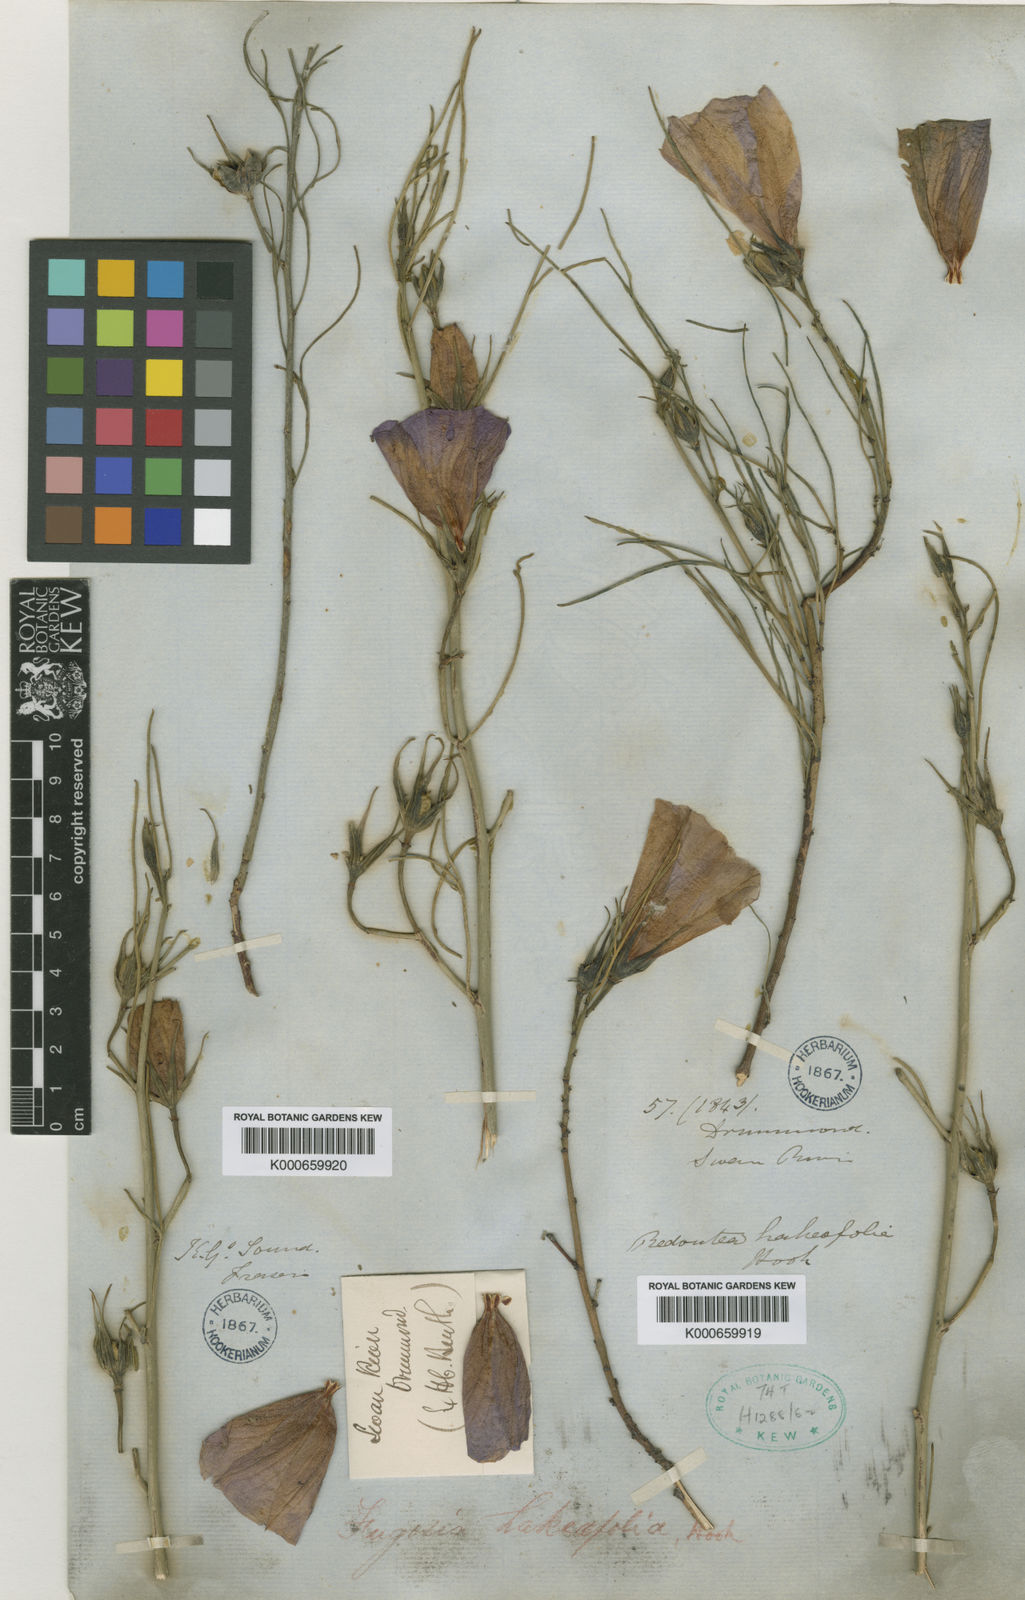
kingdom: Plantae
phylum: Tracheophyta
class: Magnoliopsida
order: Malvales
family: Malvaceae
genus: Hibiscus
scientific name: Hibiscus hakeifolius
